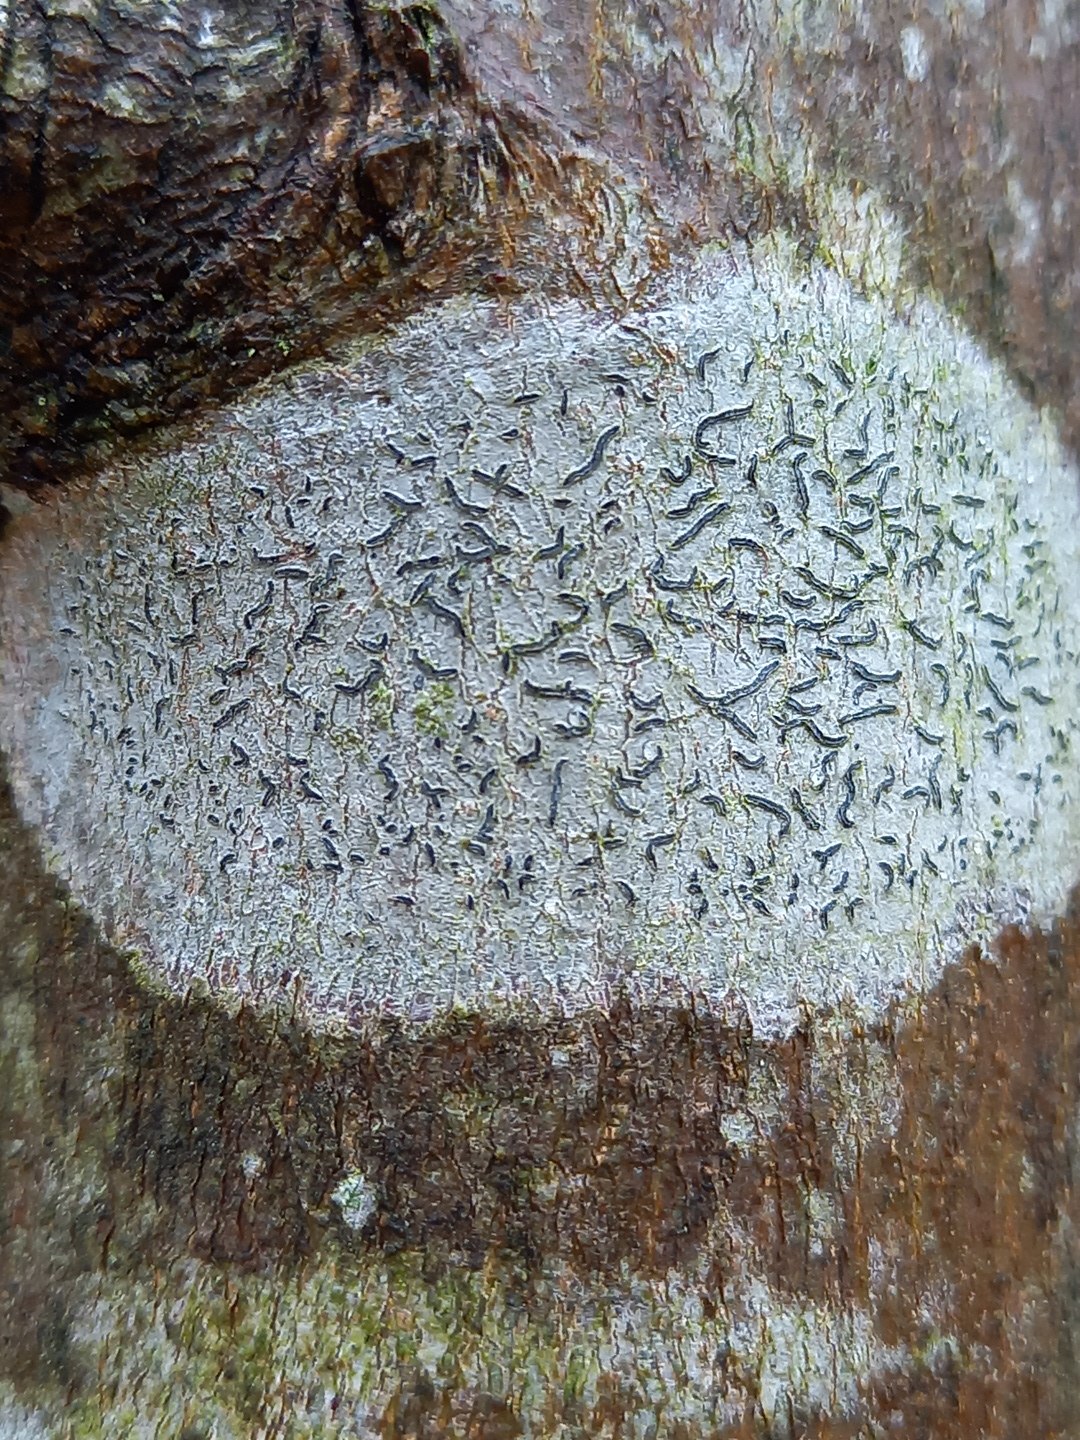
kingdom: Fungi
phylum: Ascomycota
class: Lecanoromycetes
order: Ostropales
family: Graphidaceae
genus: Graphis
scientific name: Graphis scripta
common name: almindelig skriftlav
